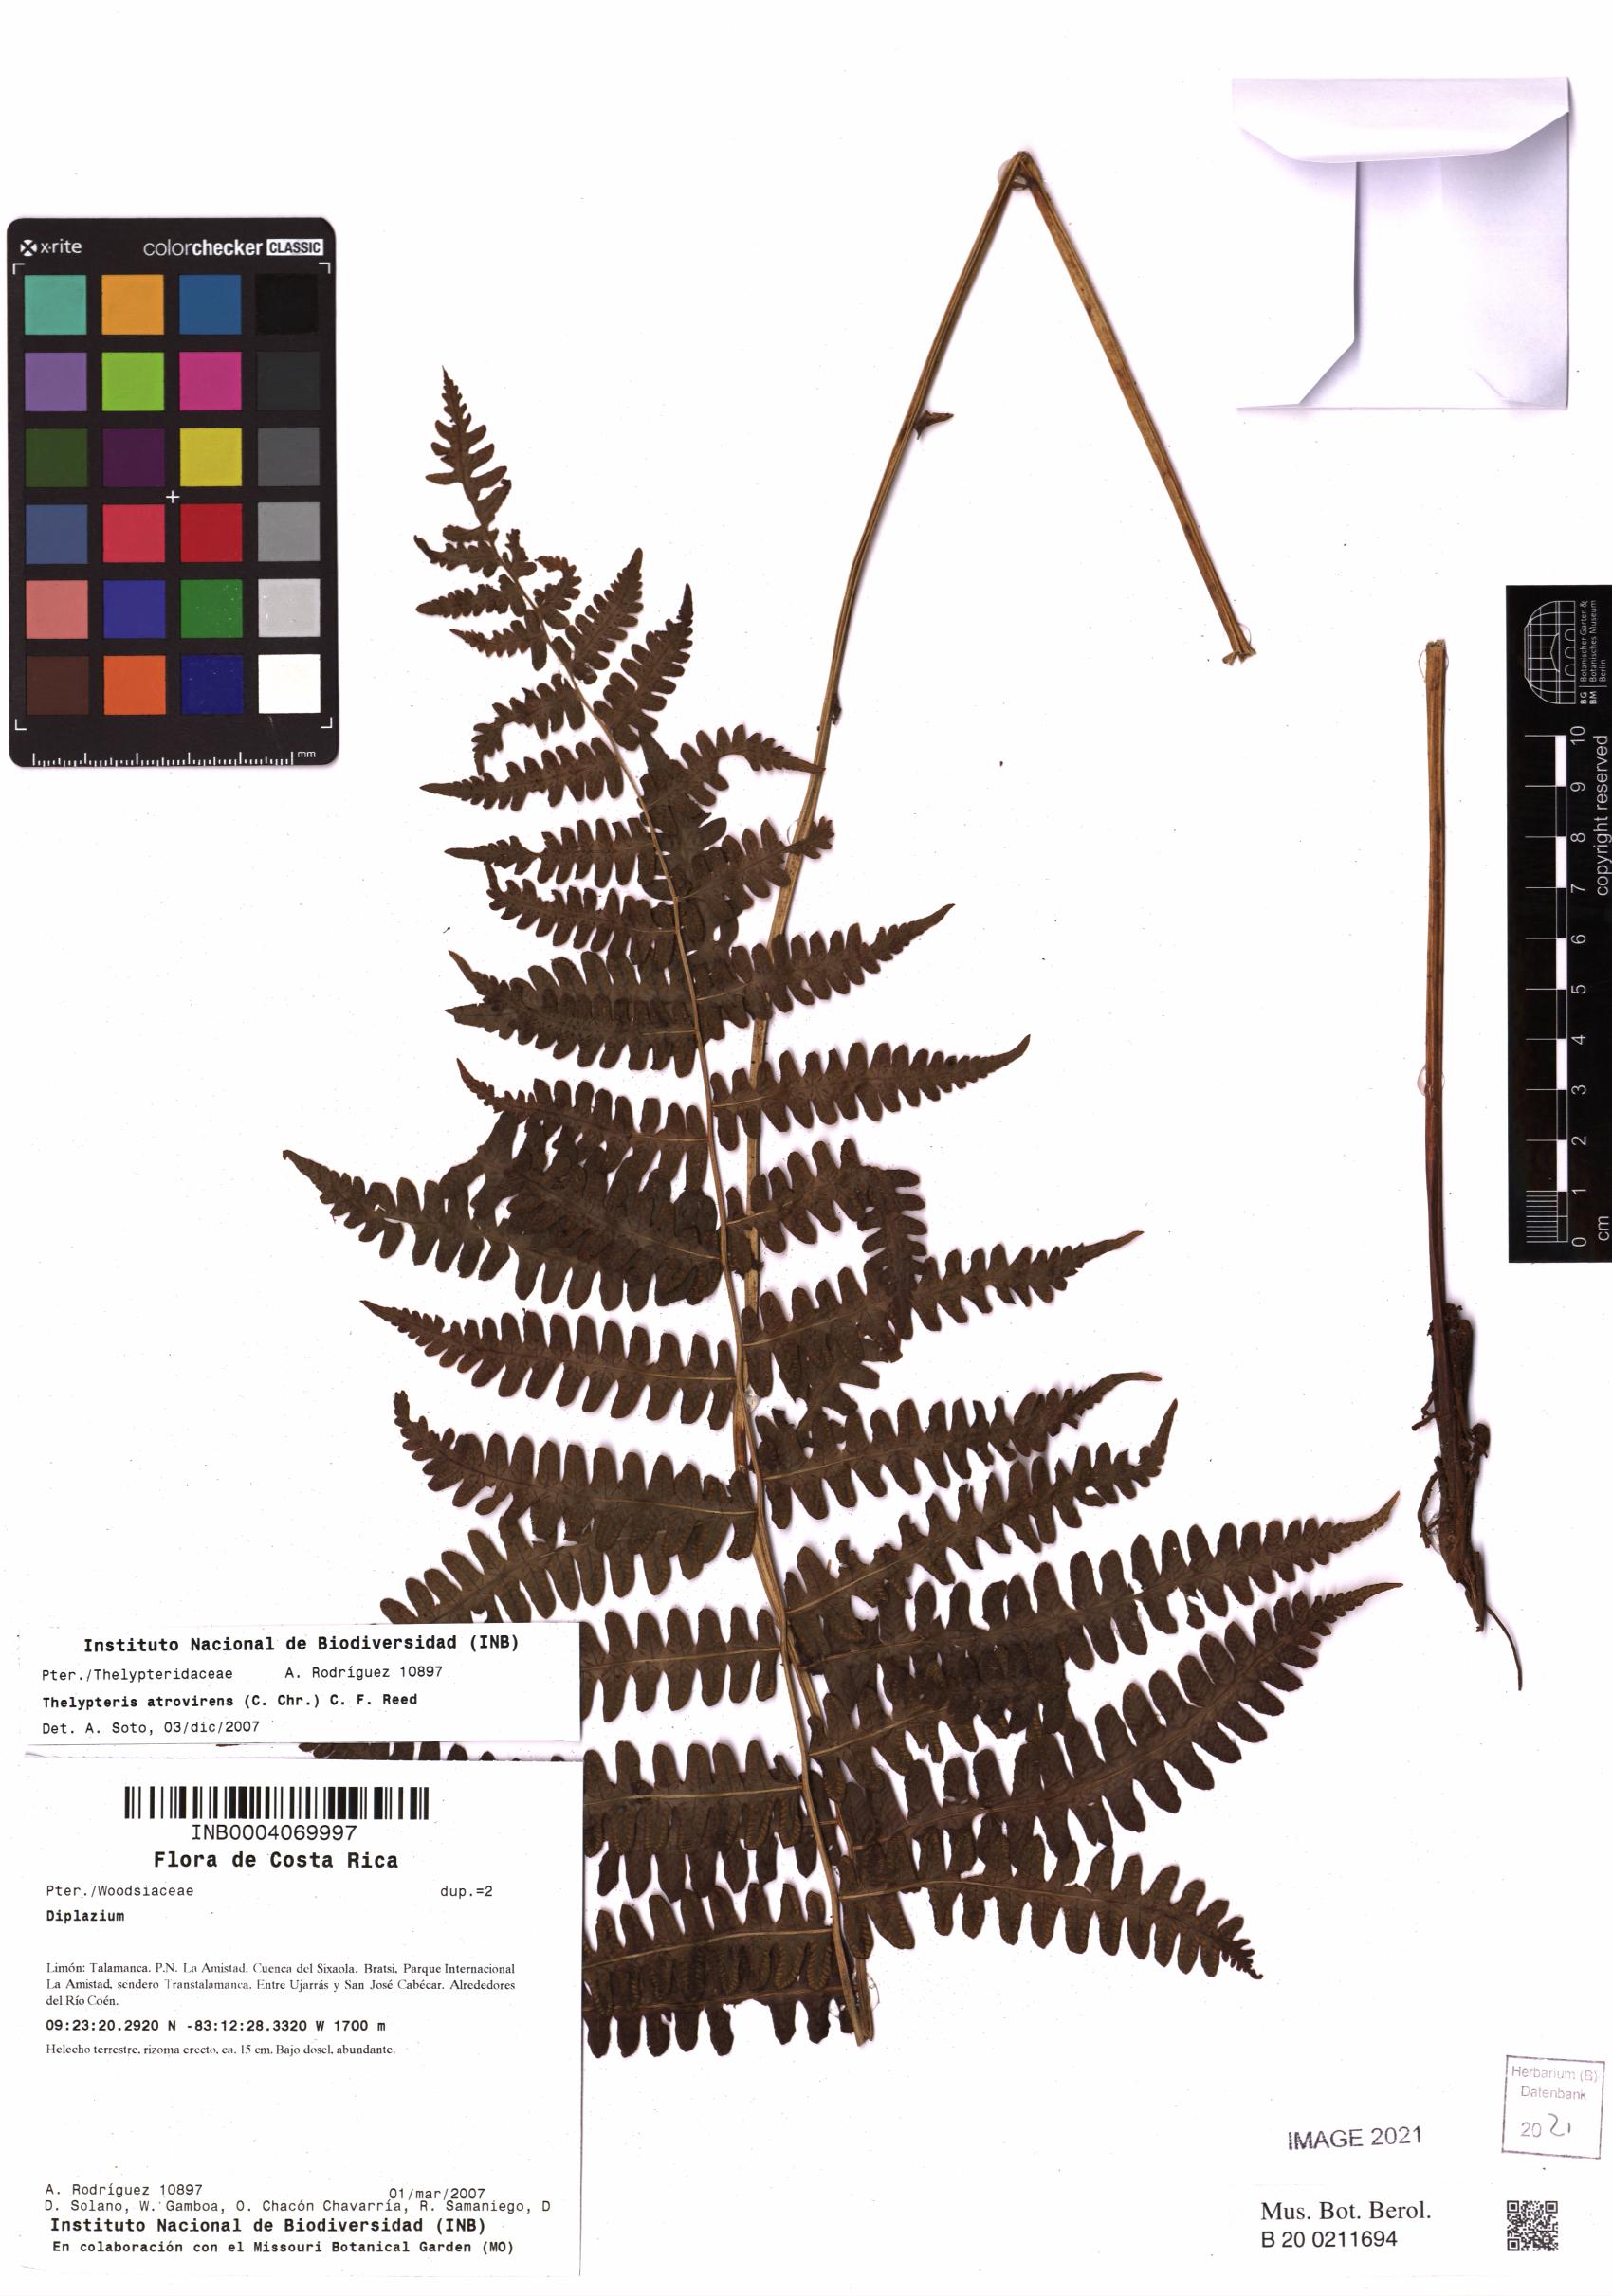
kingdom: Plantae
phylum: Tracheophyta
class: Polypodiopsida
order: Polypodiales
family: Thelypteridaceae
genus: Amauropelta
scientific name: Amauropelta atrovirens
